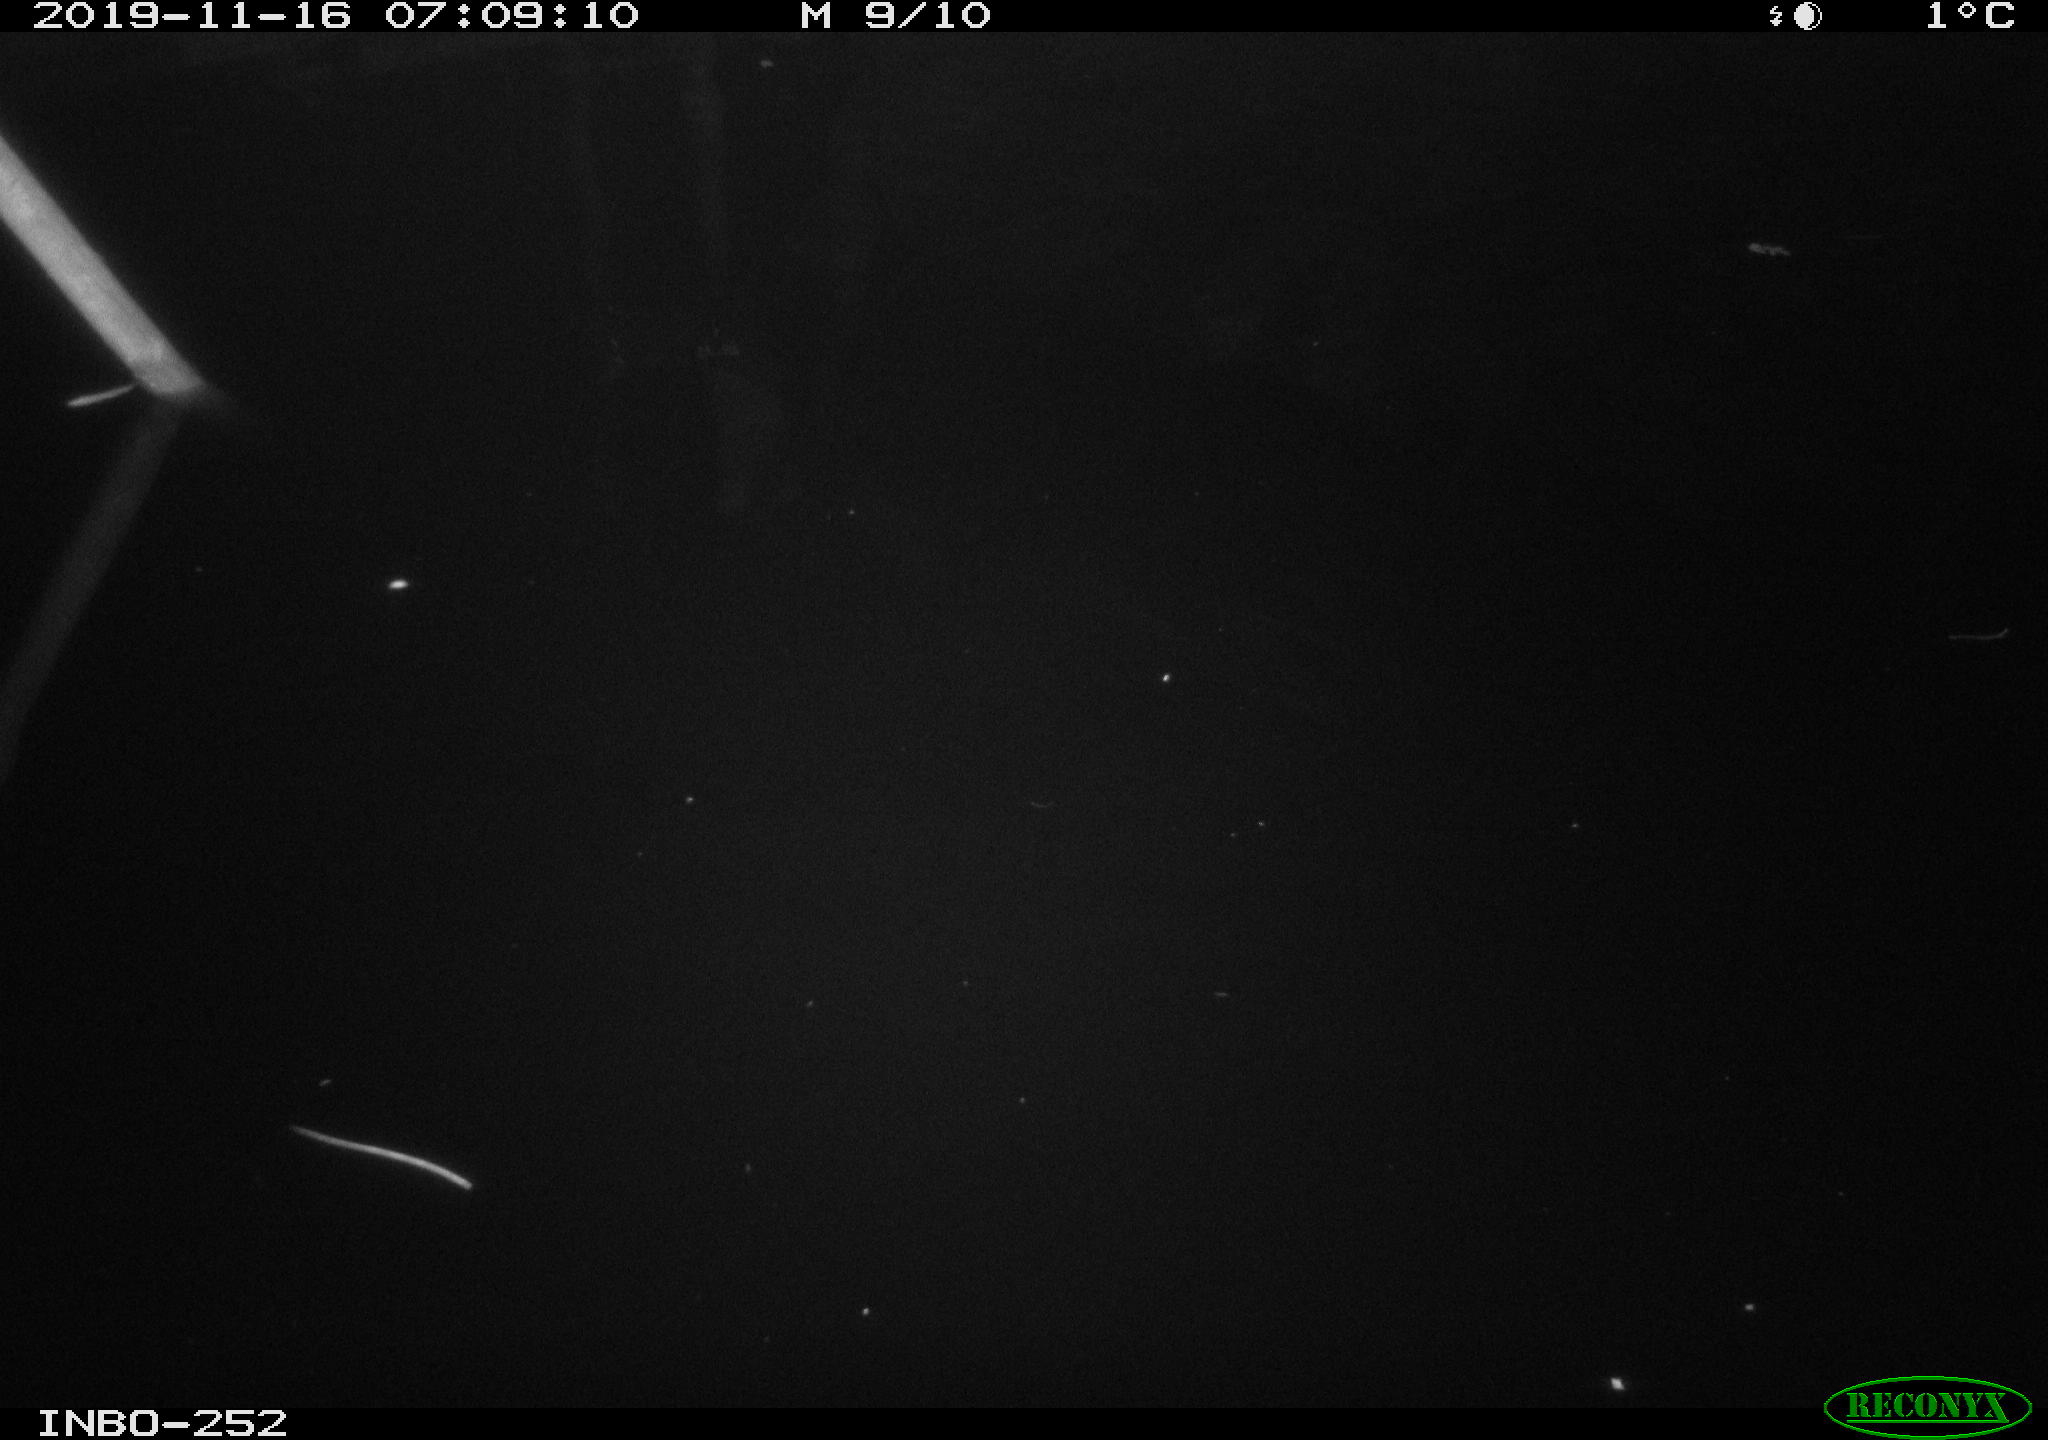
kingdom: Animalia
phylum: Chordata
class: Aves
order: Anseriformes
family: Anatidae
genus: Anas
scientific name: Anas platyrhynchos
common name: Mallard
